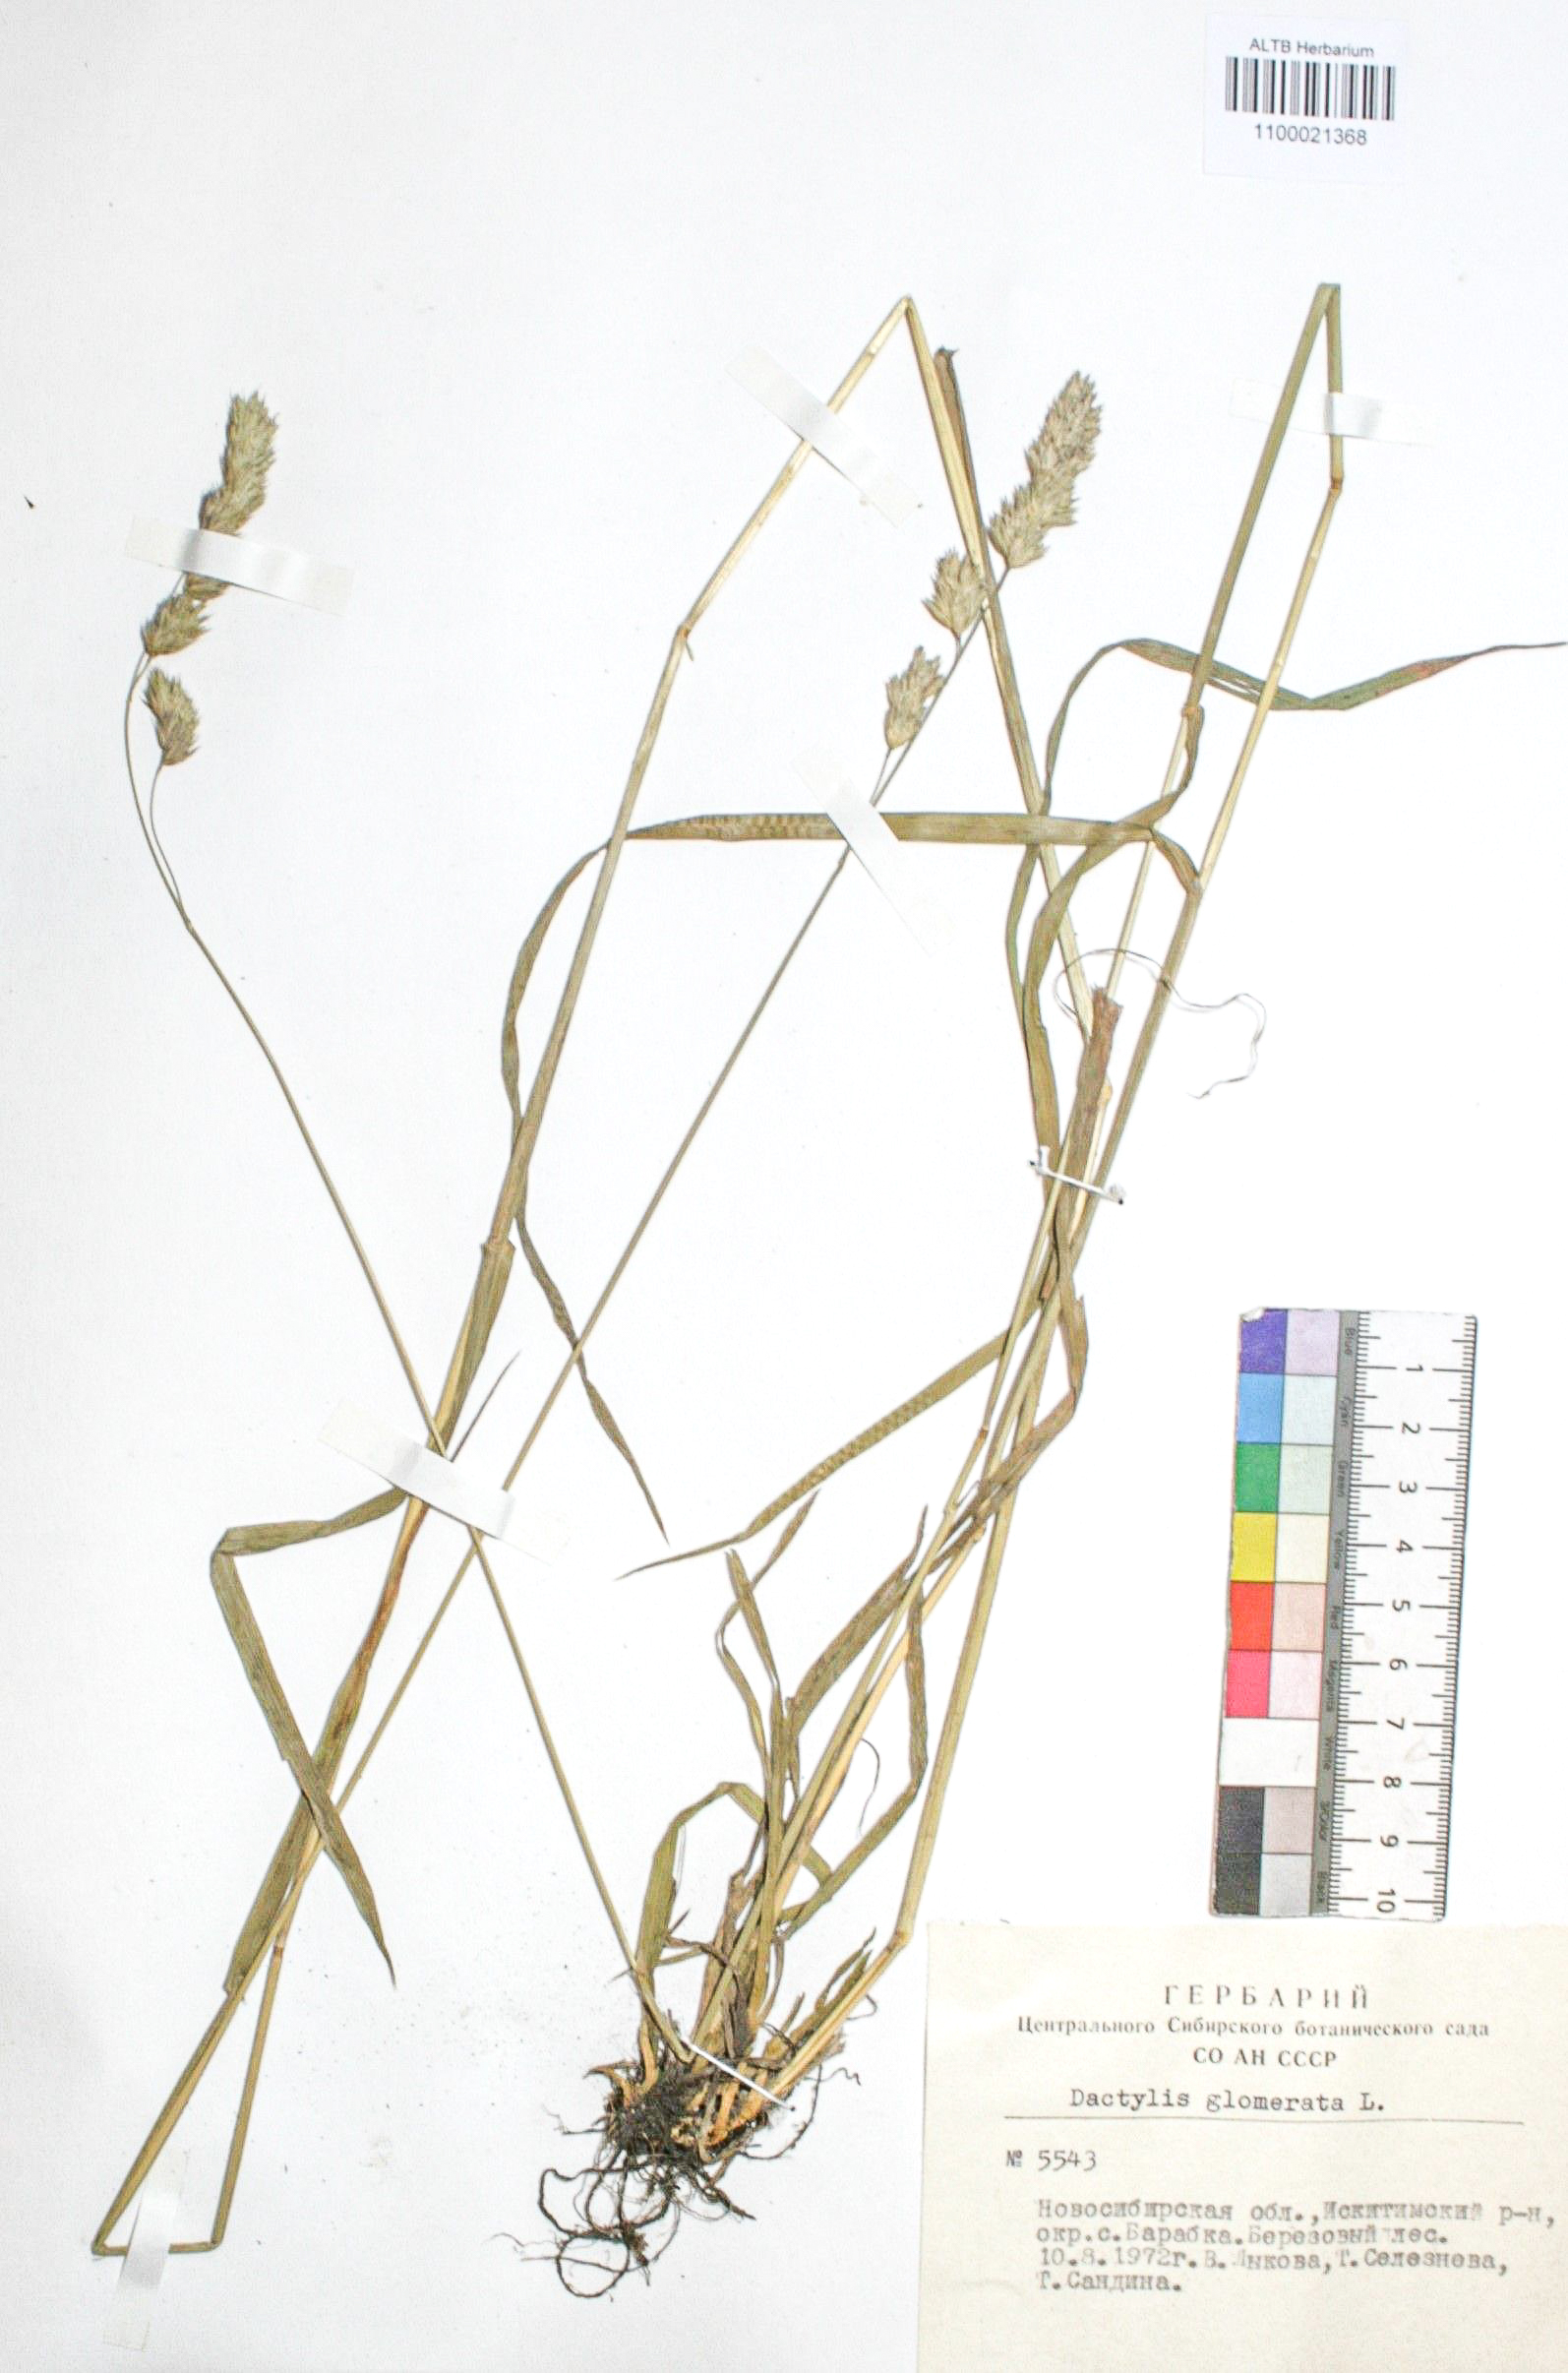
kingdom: Plantae
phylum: Tracheophyta
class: Liliopsida
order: Poales
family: Poaceae
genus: Dactylis
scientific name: Dactylis glomerata
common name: Orchardgrass
